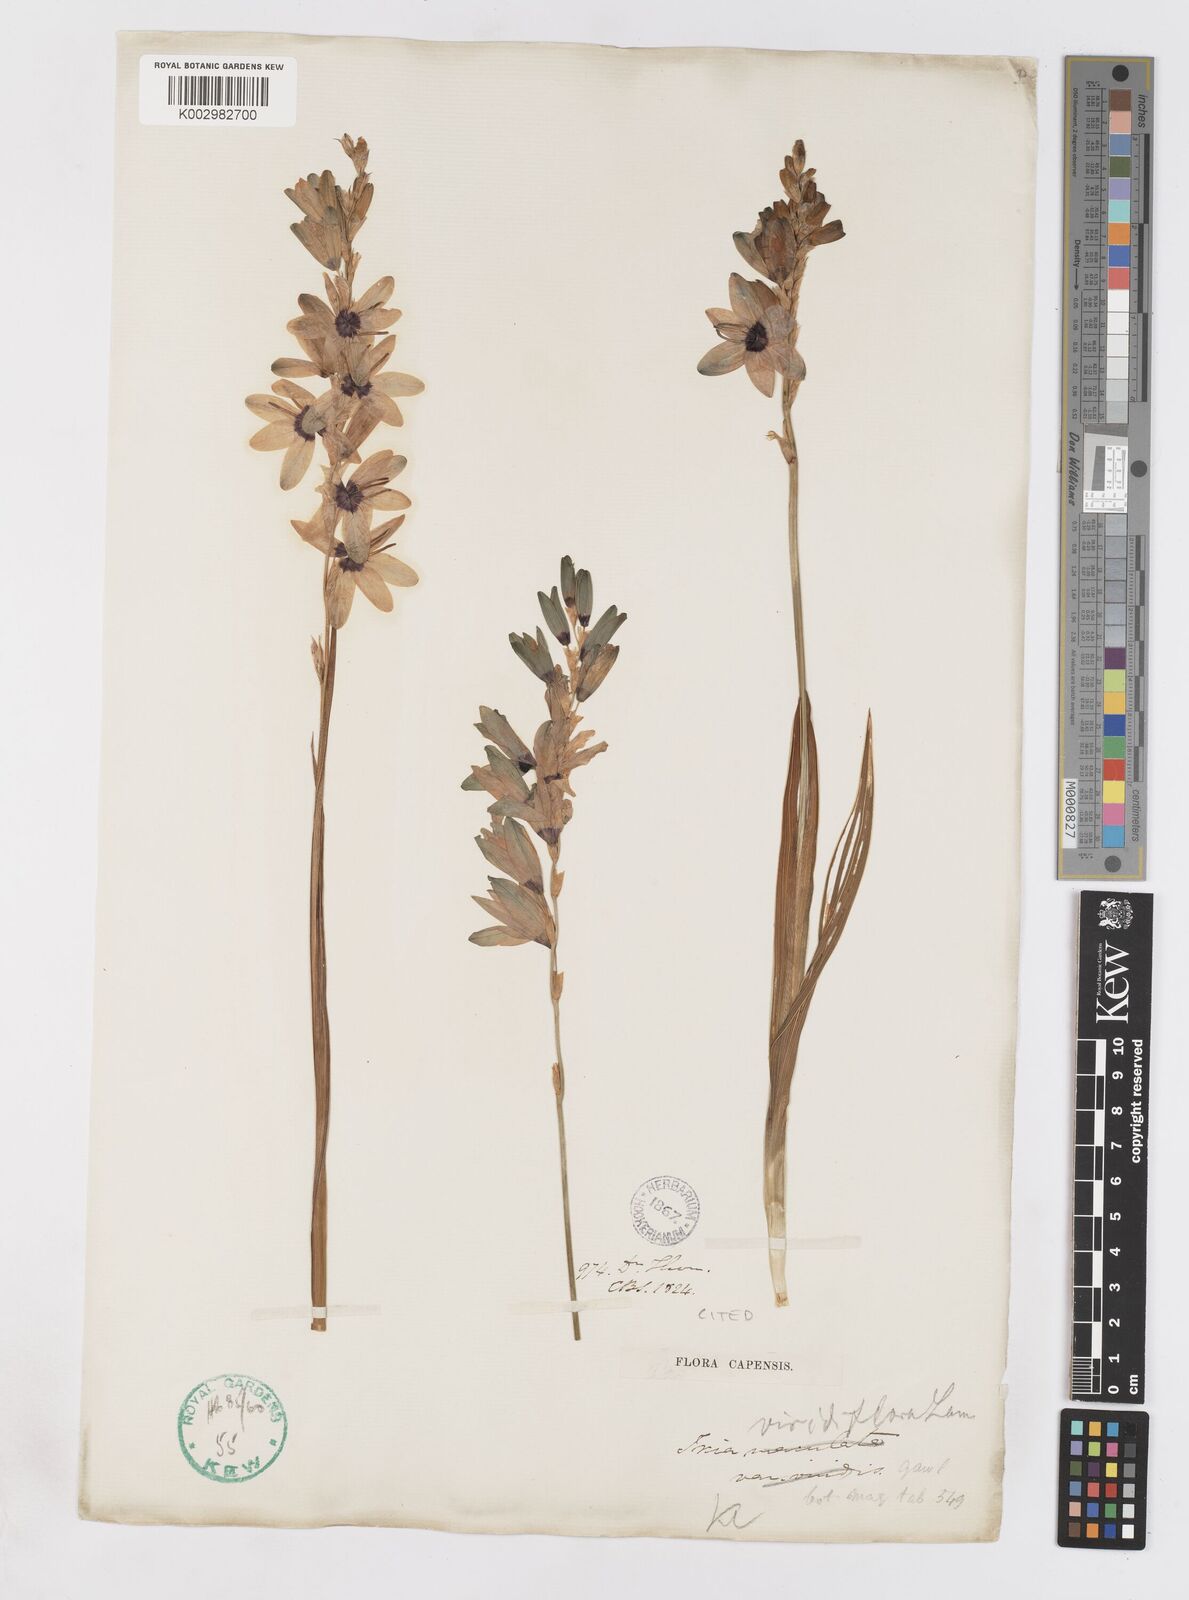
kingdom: Plantae
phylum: Tracheophyta
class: Liliopsida
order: Asparagales
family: Iridaceae
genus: Ixia
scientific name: Ixia viridiflora
